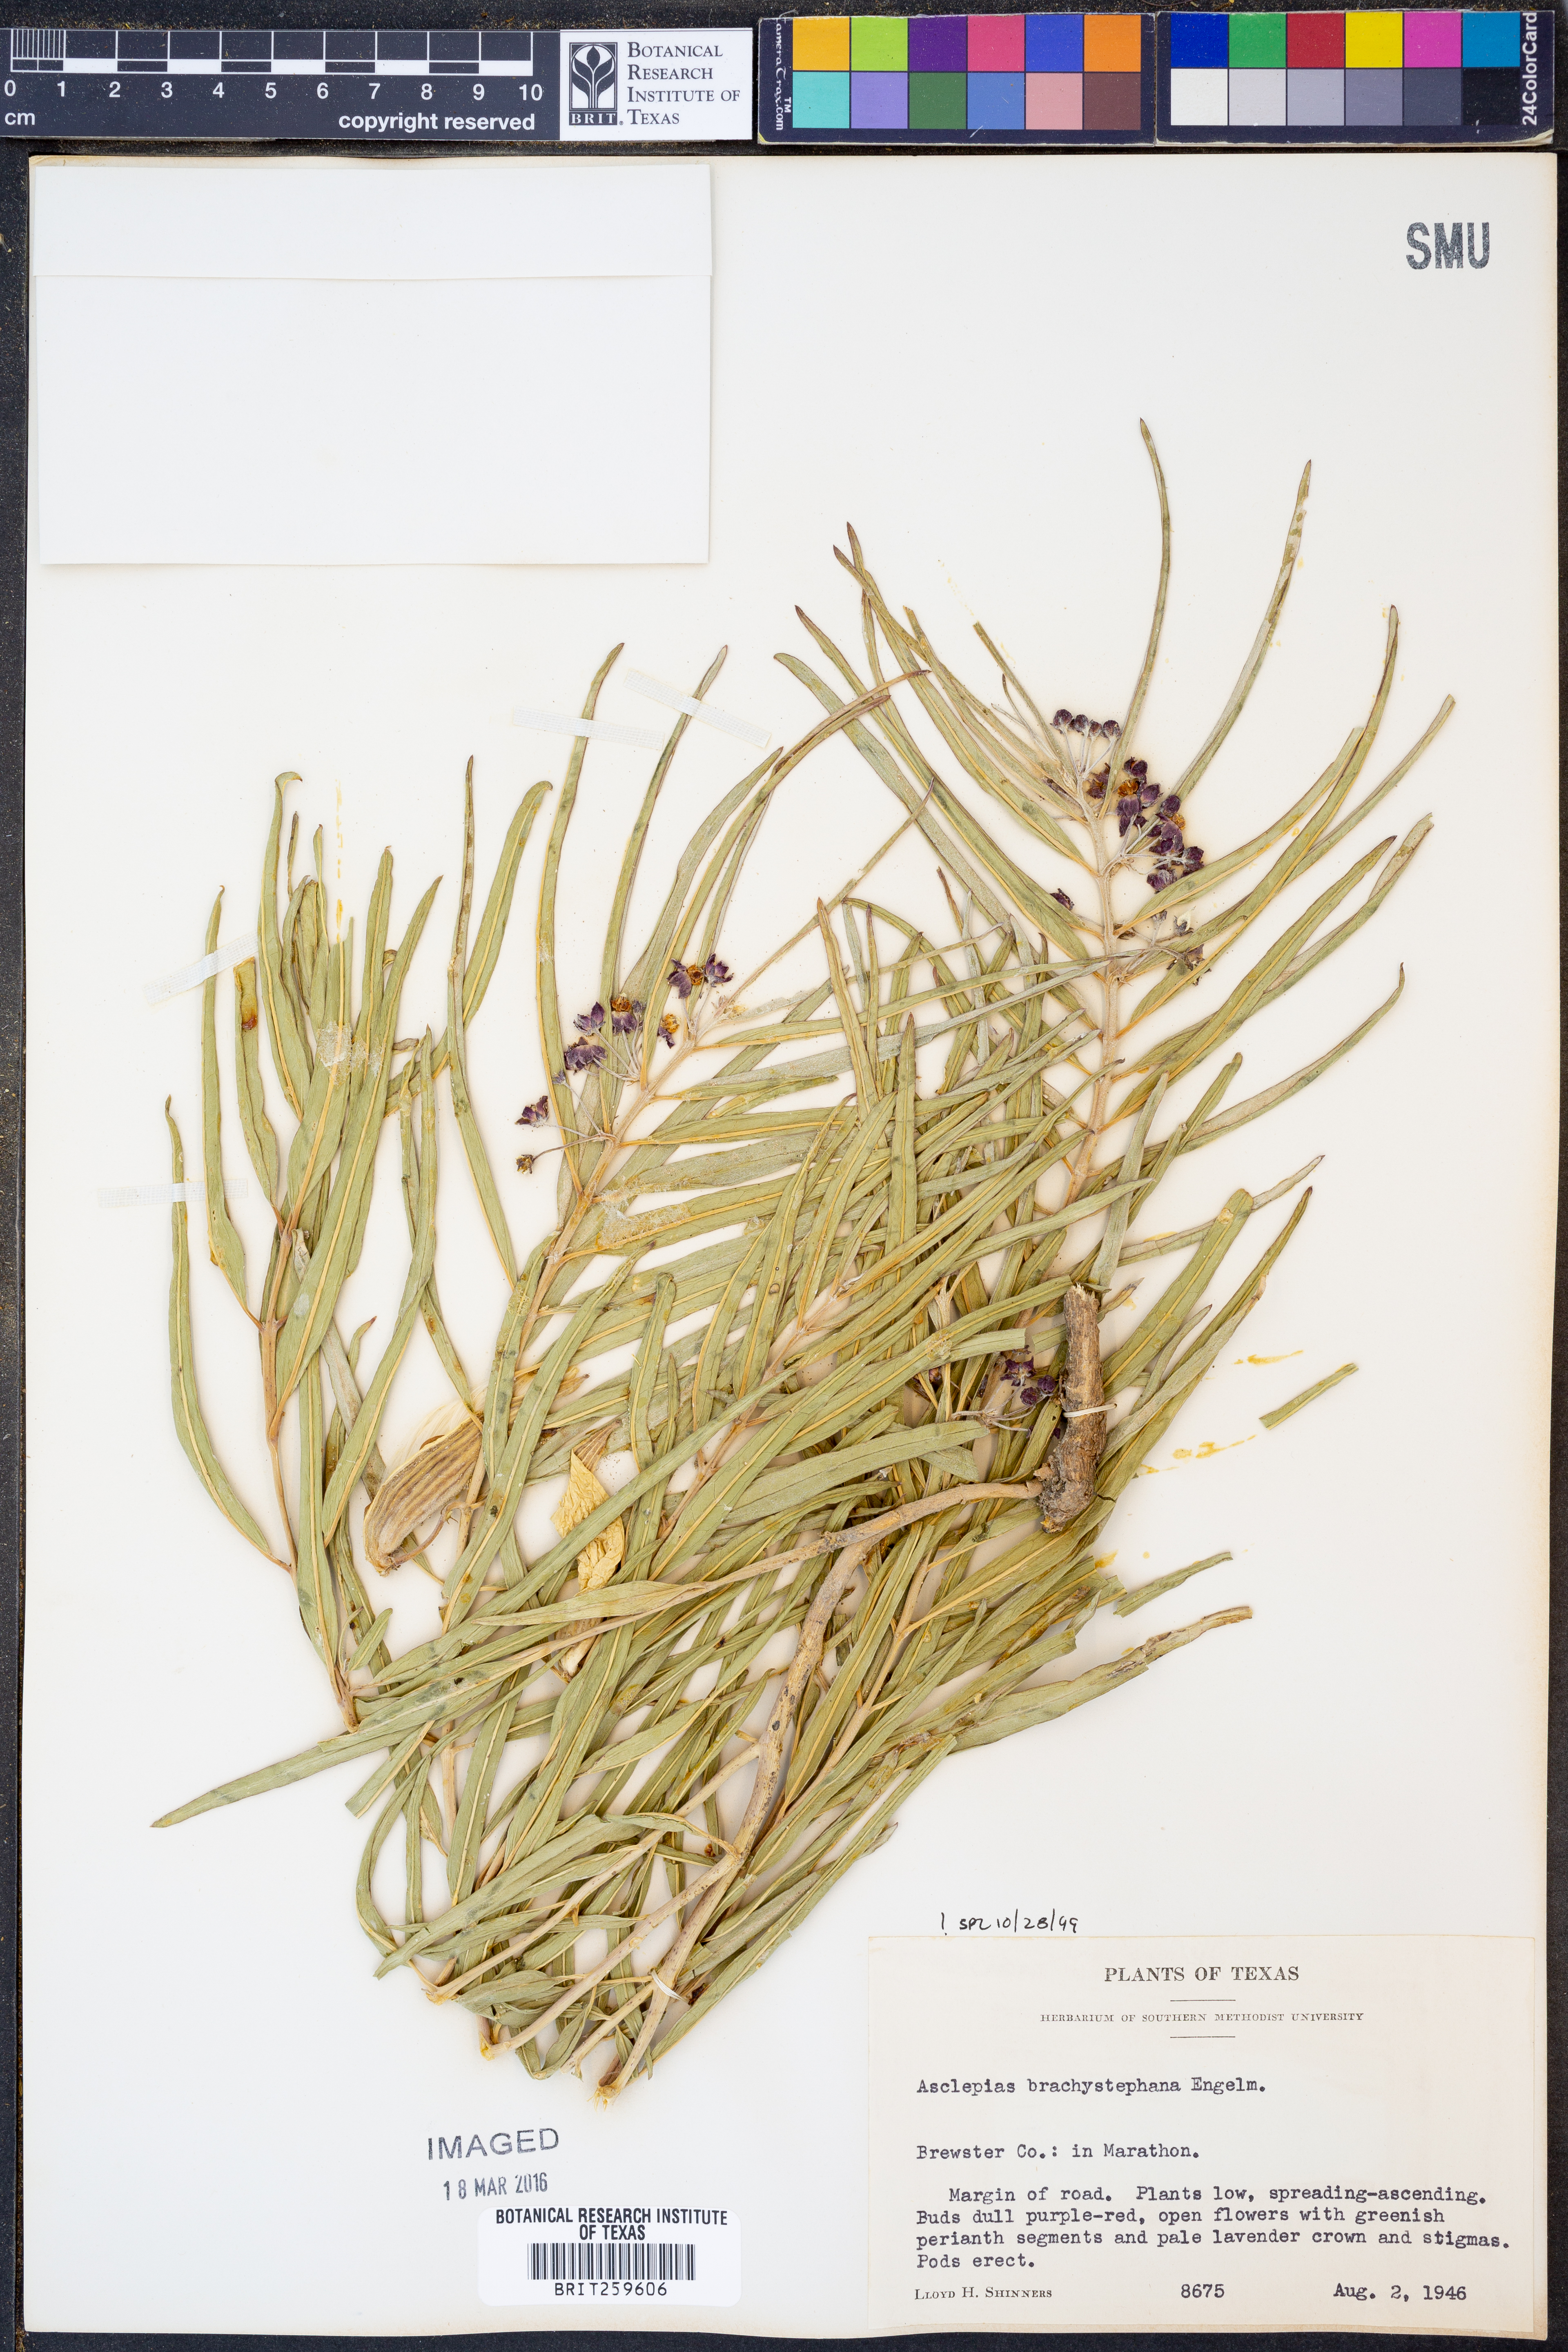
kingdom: Plantae
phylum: Tracheophyta
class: Magnoliopsida
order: Gentianales
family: Apocynaceae
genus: Asclepias
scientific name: Asclepias brachystephana
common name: Shortcrown milkweed
